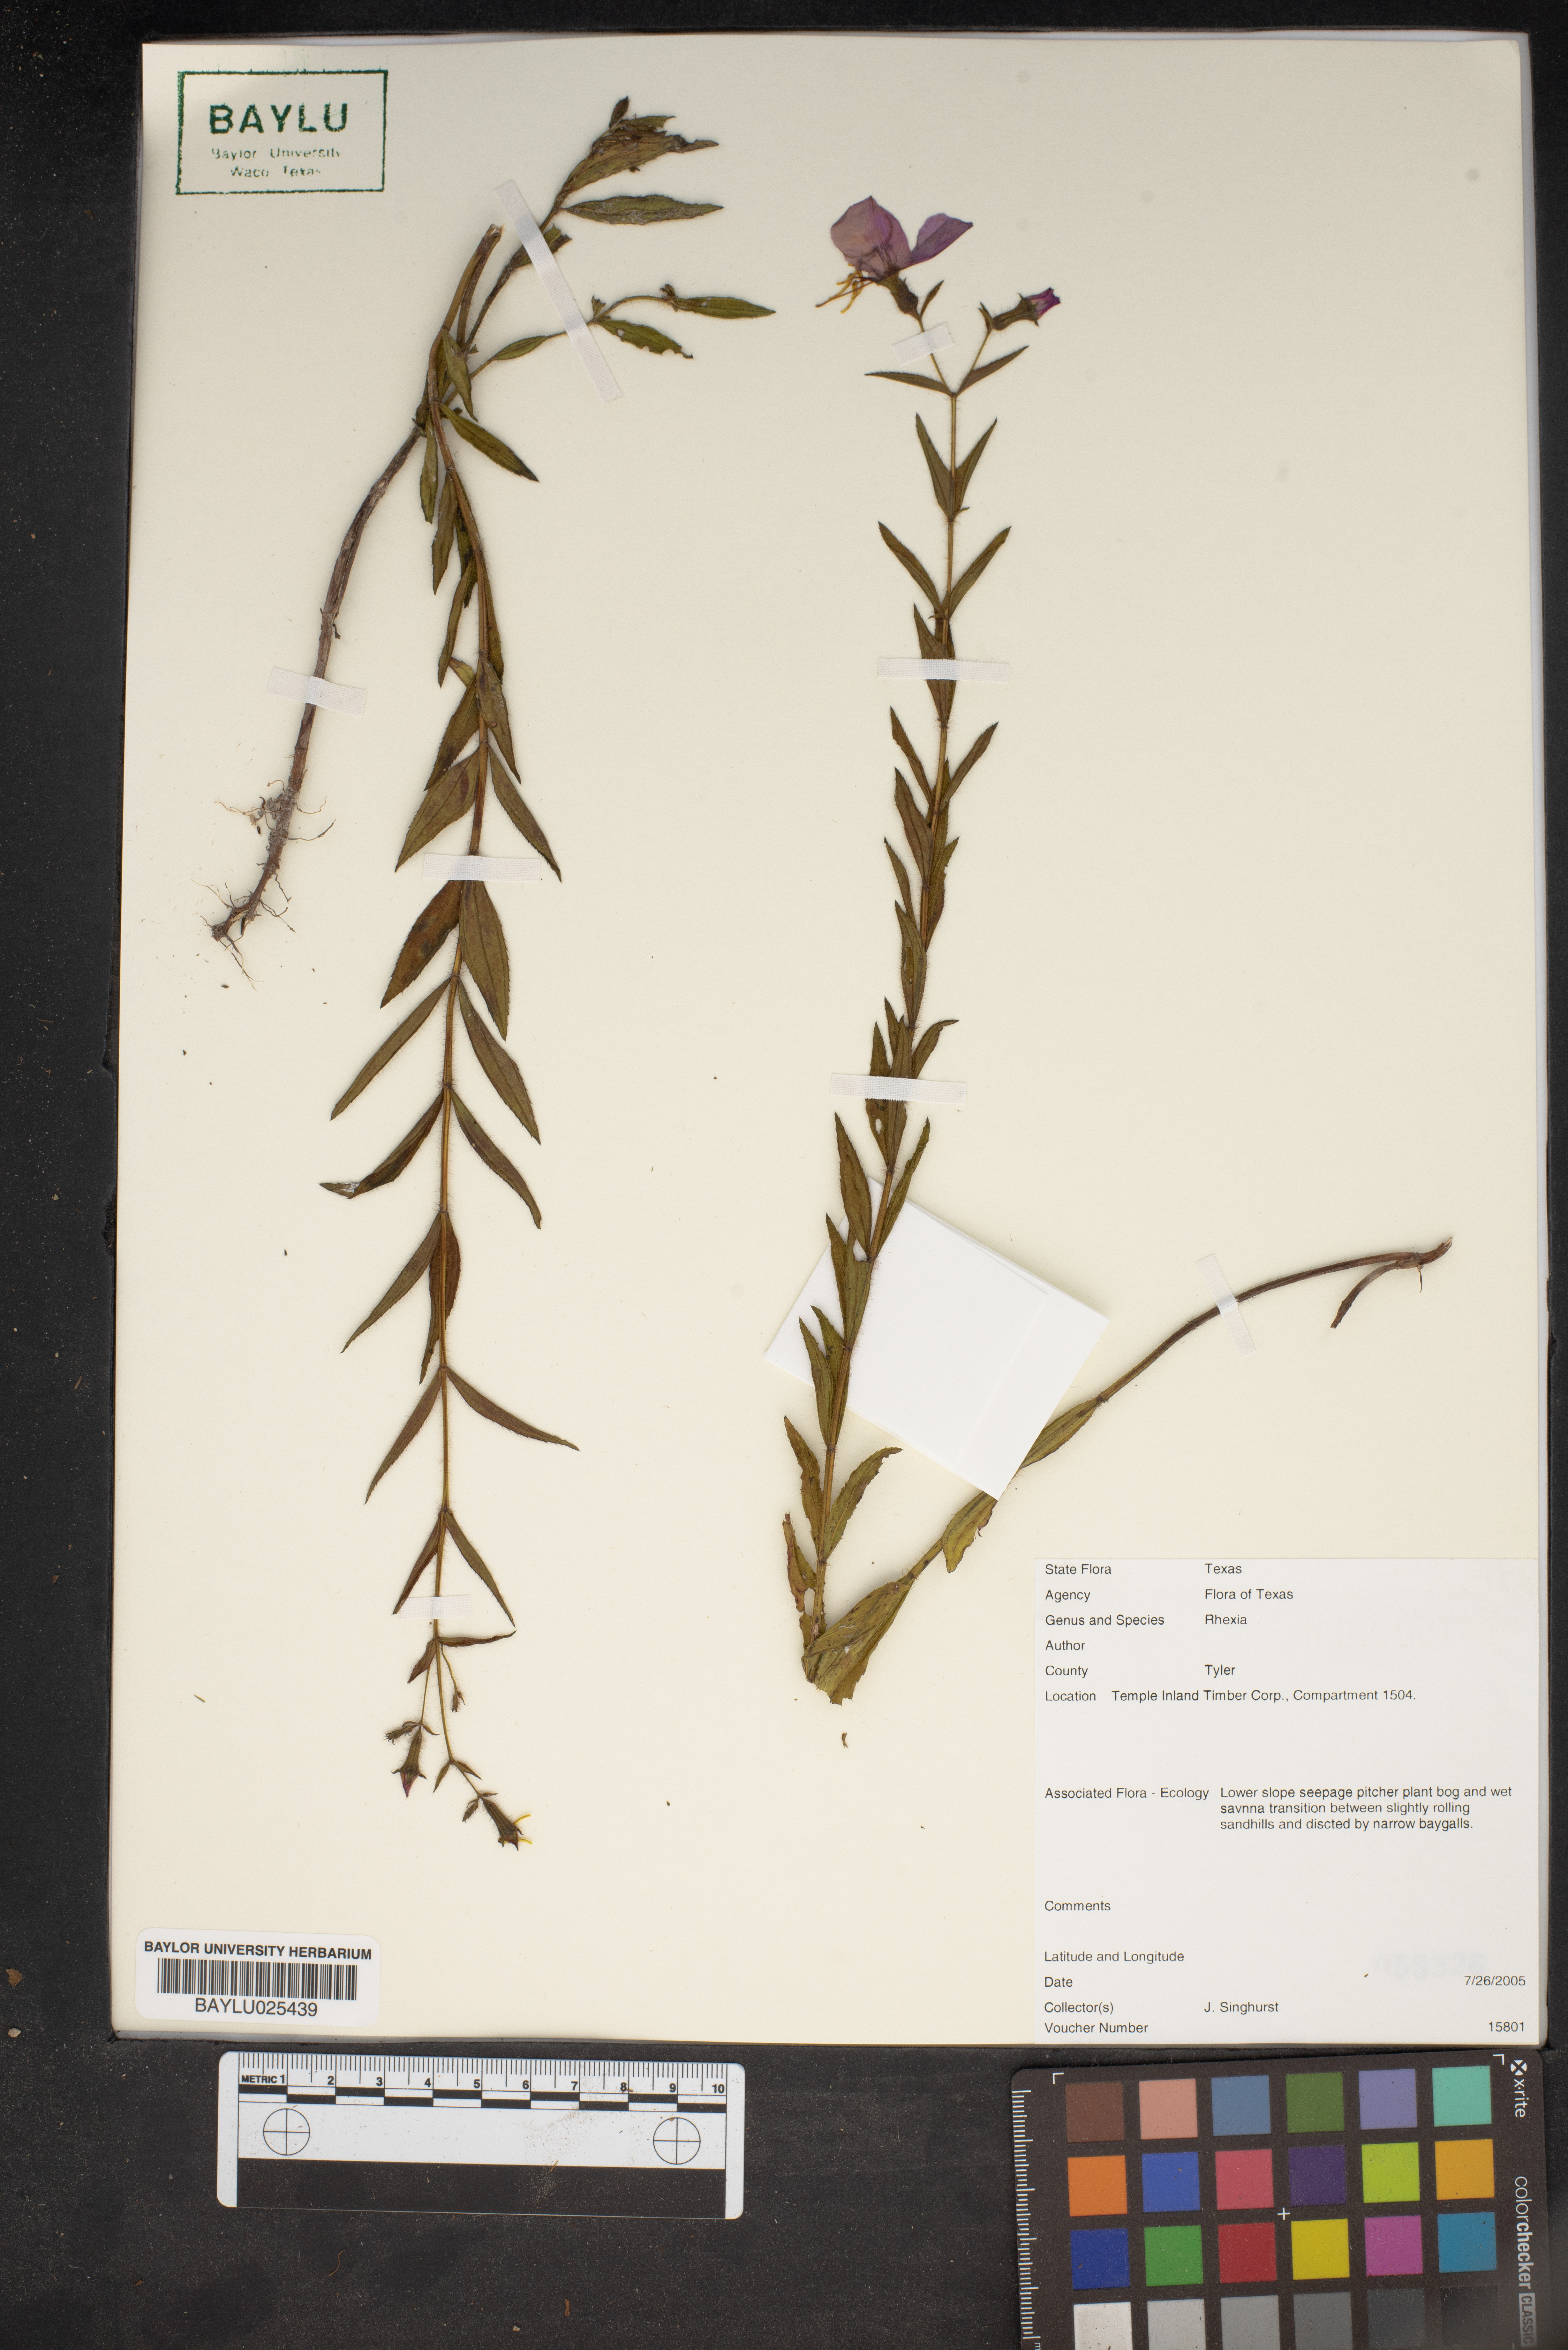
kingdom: Plantae
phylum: Tracheophyta
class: Magnoliopsida
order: Myrtales
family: Melastomataceae
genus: Rhexia
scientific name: Rhexia
